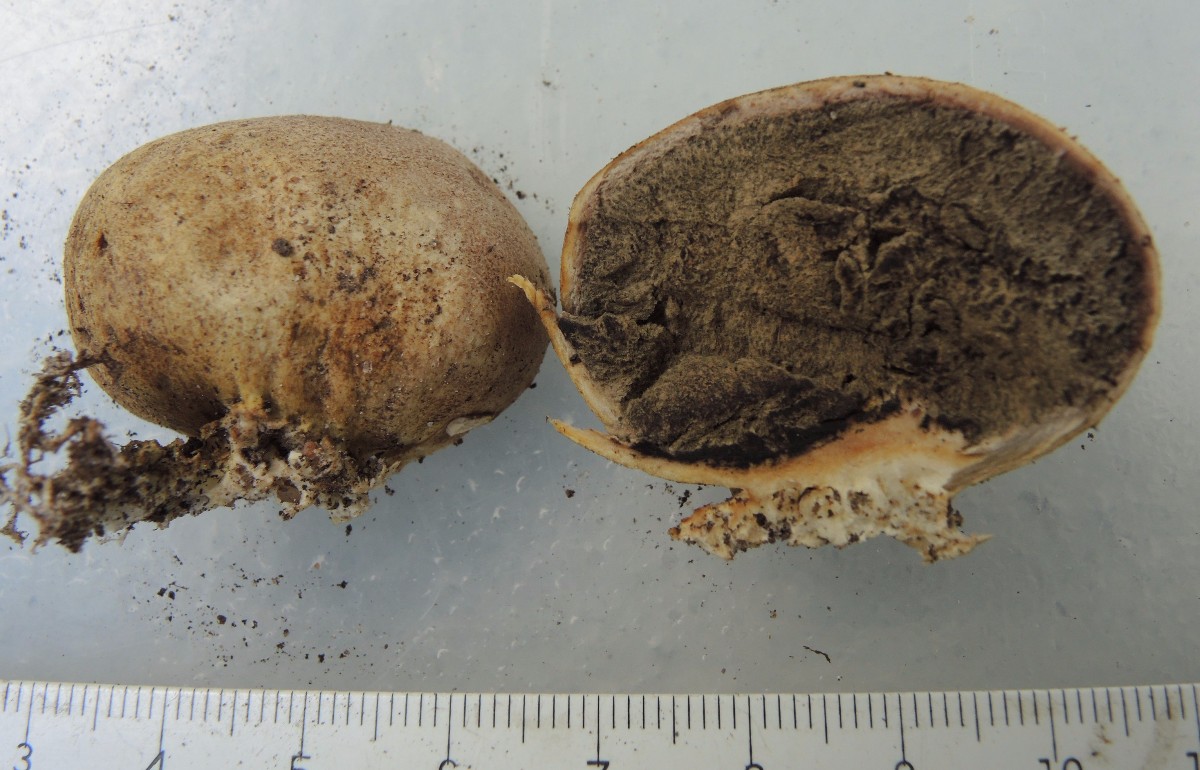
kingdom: Fungi
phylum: Basidiomycota
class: Agaricomycetes
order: Boletales
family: Sclerodermataceae
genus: Scleroderma
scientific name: Scleroderma bovista
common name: bovist-bruskbold
